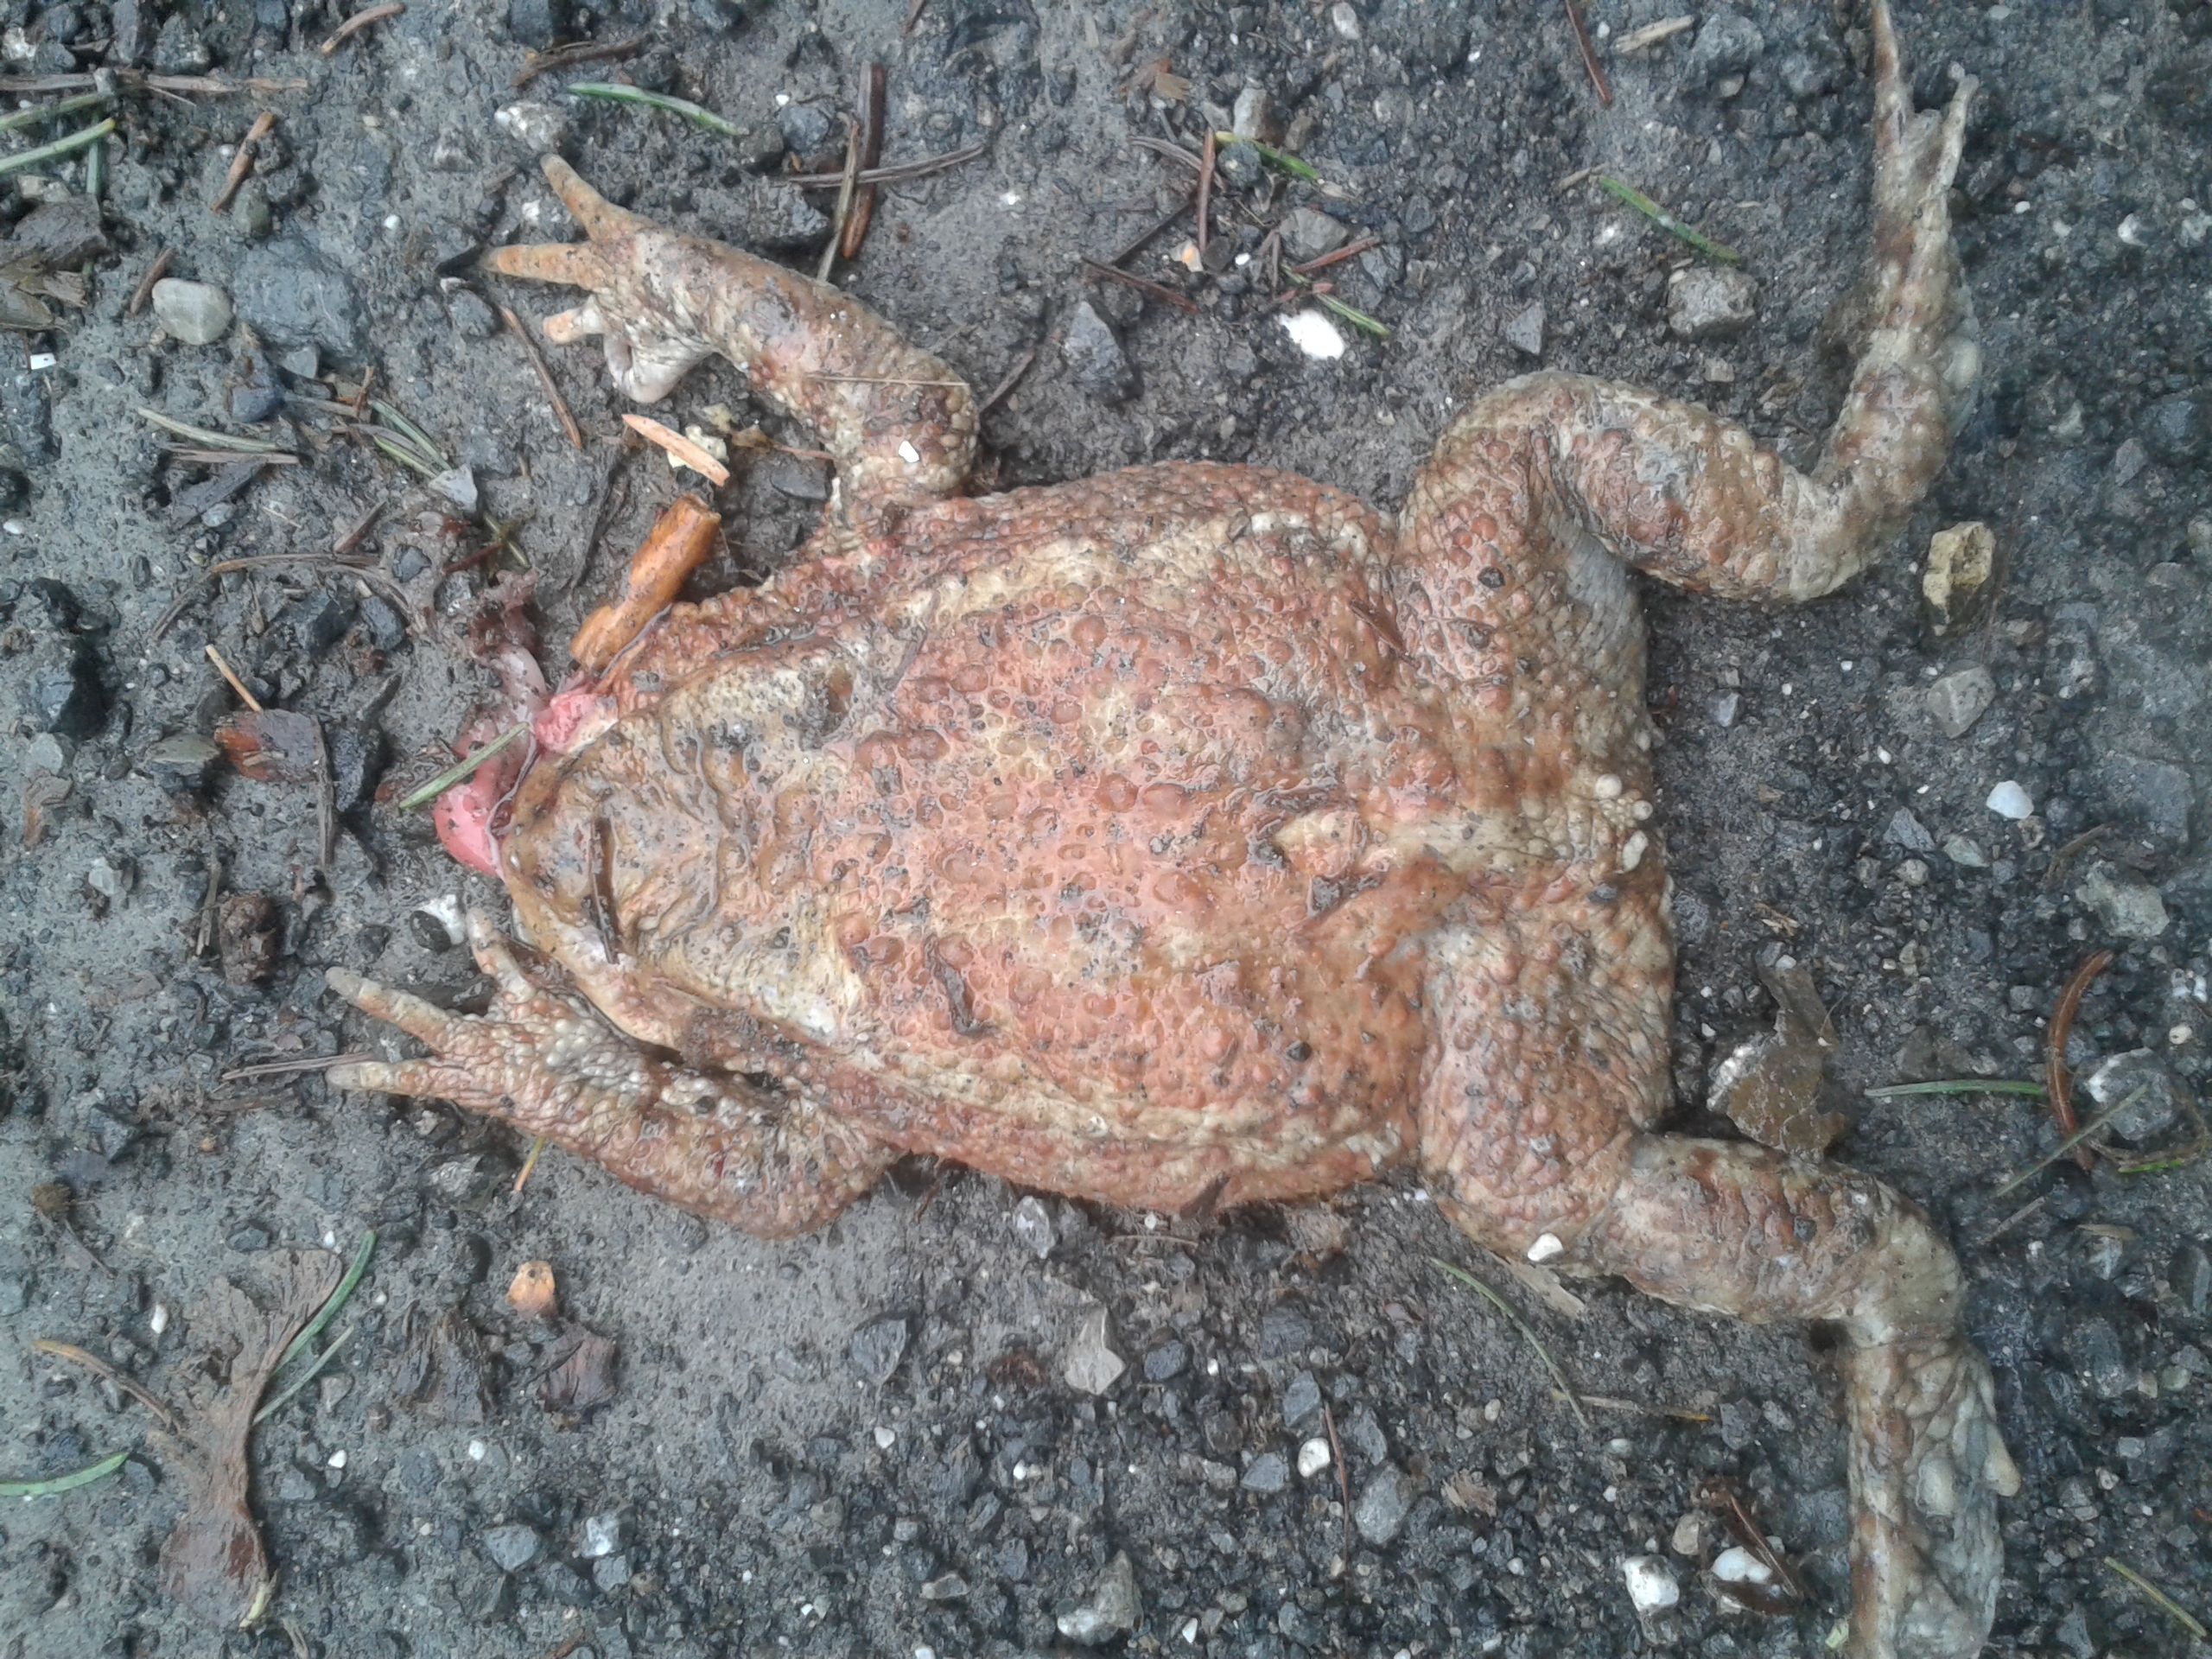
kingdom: Animalia
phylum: Chordata
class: Amphibia
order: Anura
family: Bufonidae
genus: Bufo
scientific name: Bufo bufo
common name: Common toad
